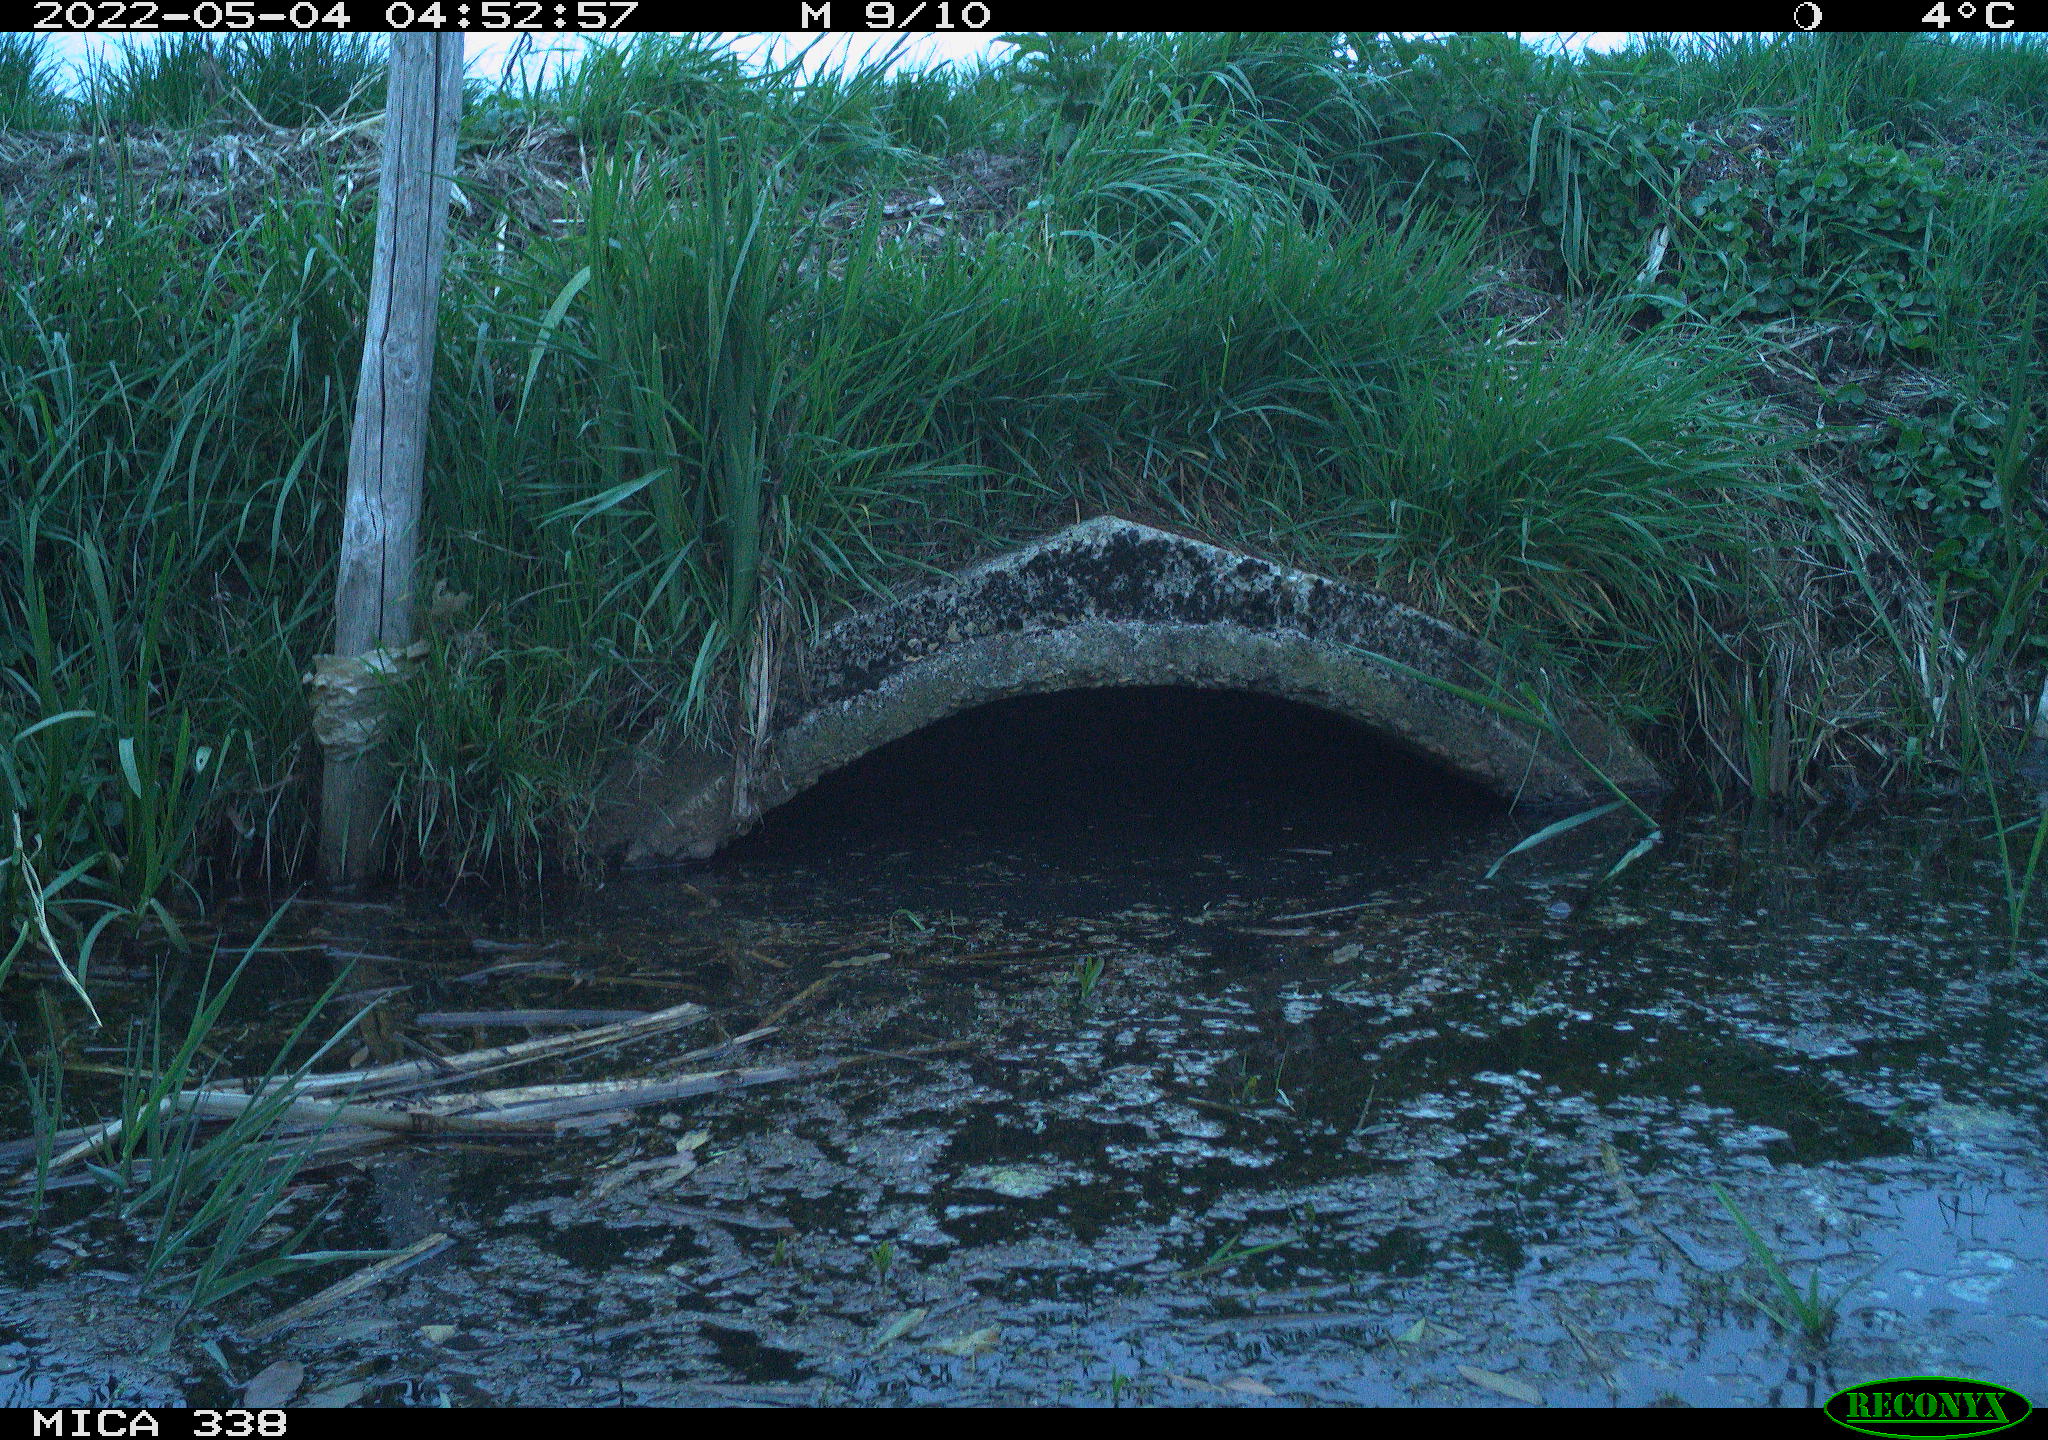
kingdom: Animalia
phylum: Chordata
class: Mammalia
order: Rodentia
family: Muridae
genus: Rattus
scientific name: Rattus norvegicus
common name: Brown rat
